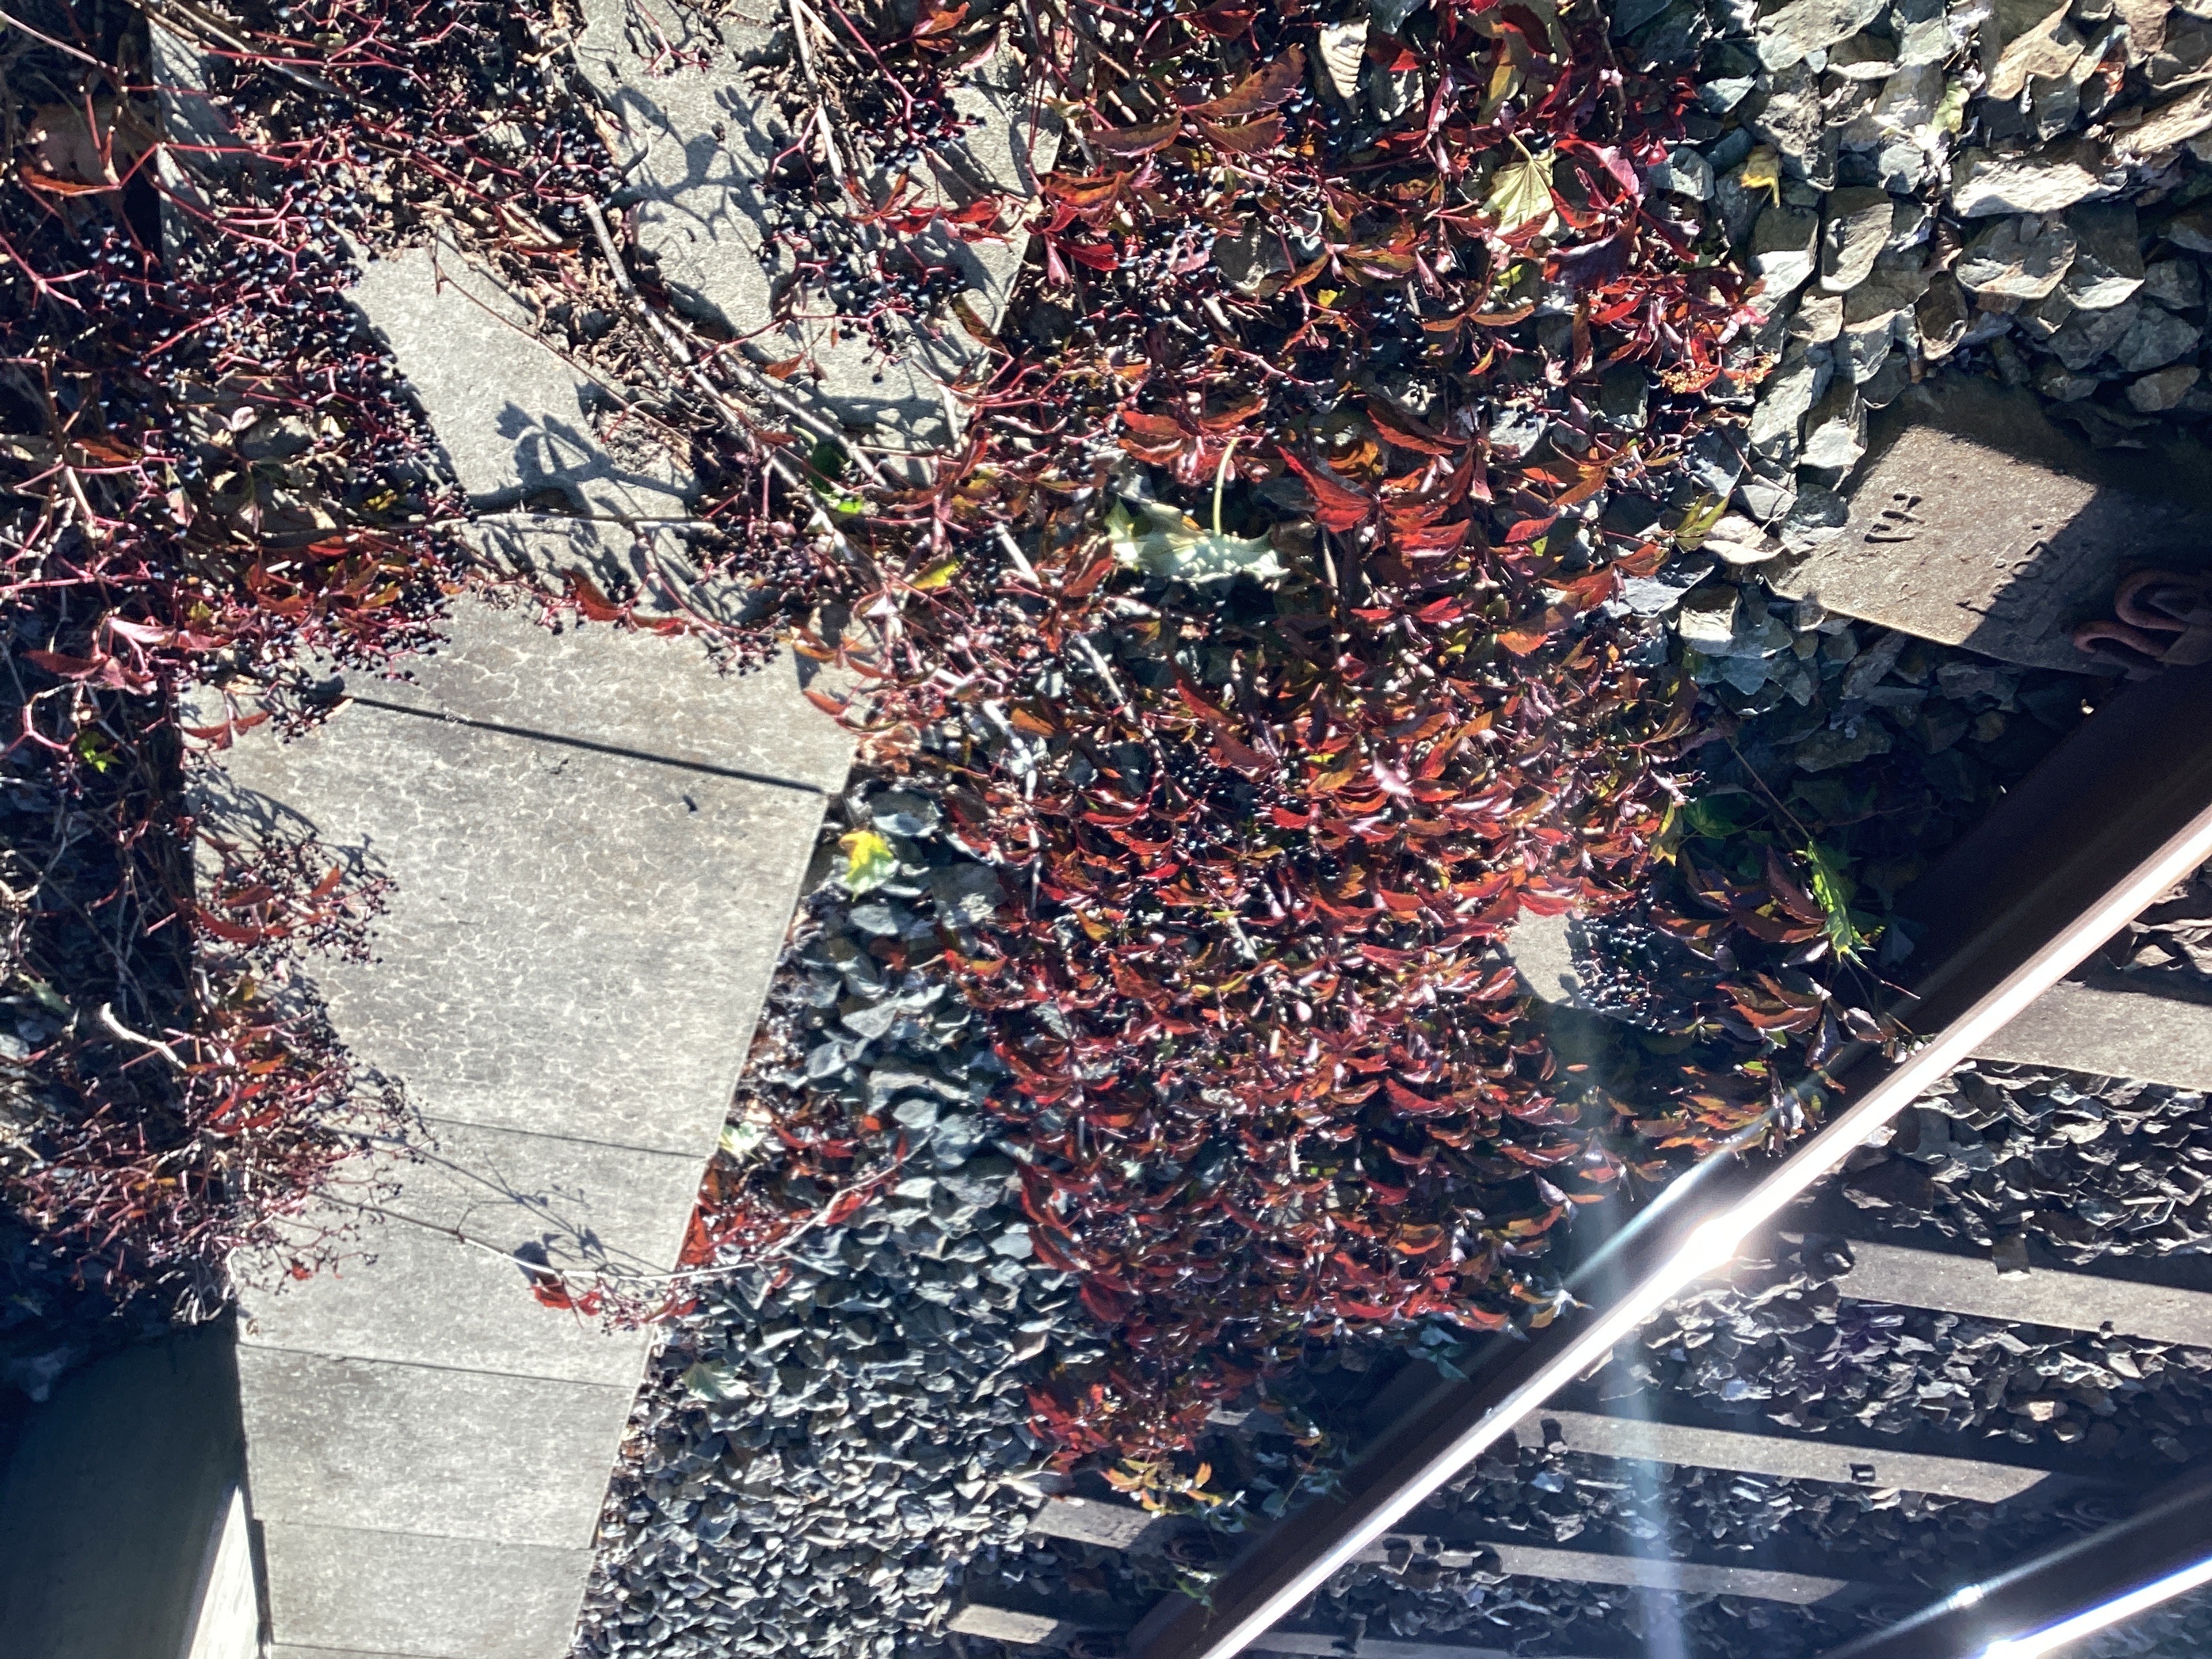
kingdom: Plantae
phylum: Tracheophyta
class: Magnoliopsida
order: Vitales
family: Vitaceae
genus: Parthenocissus
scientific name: Parthenocissus quinquefolia
